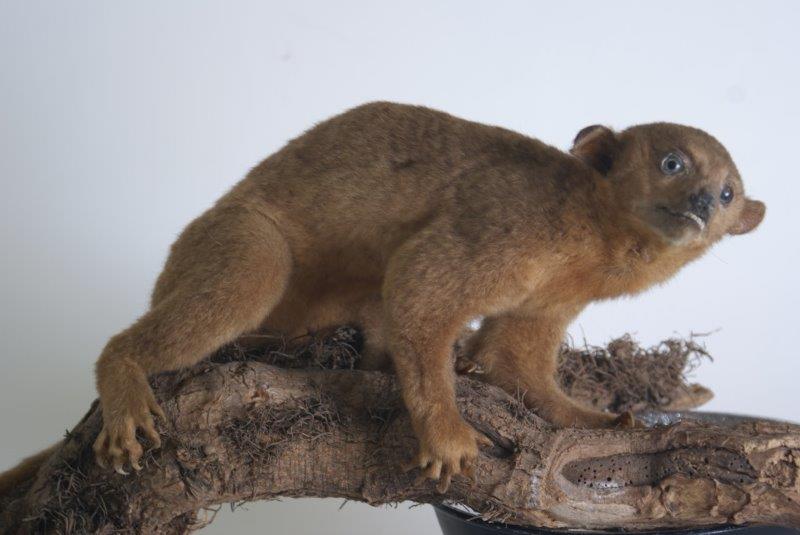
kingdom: Animalia
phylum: Chordata
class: Mammalia
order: Diprotodontia
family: Phalangeridae
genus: Phalanger
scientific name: Phalanger
